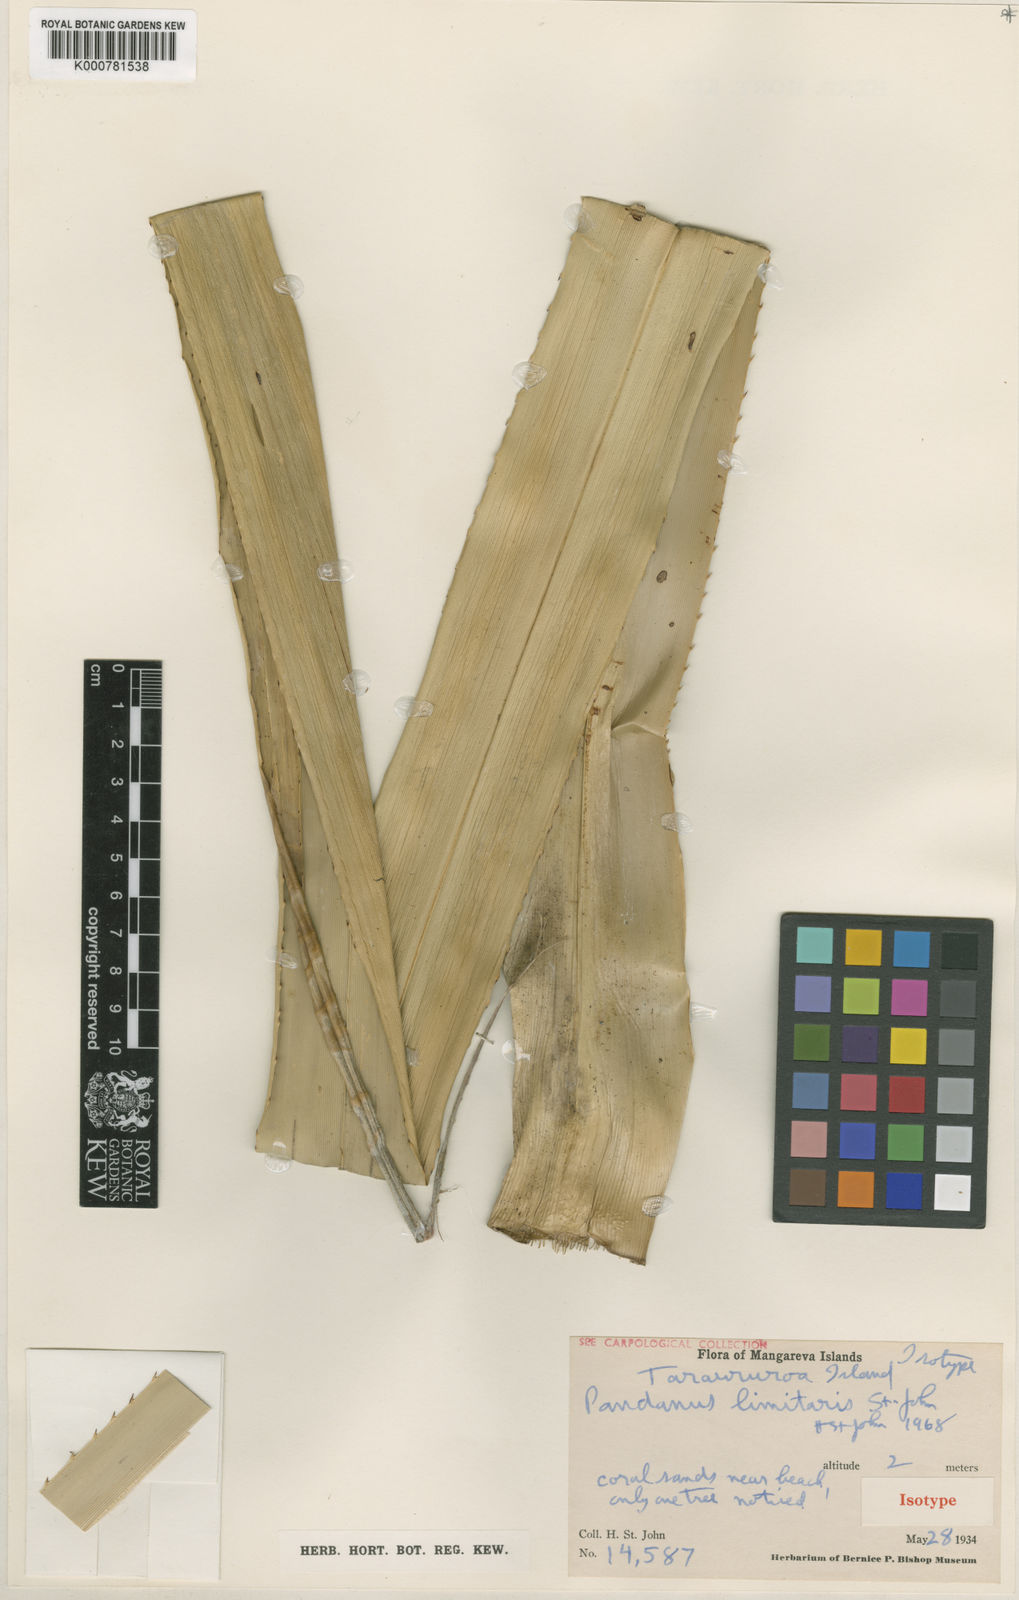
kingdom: Plantae
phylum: Tracheophyta
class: Liliopsida
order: Pandanales
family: Pandanaceae
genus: Pandanus
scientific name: Pandanus tectorius
